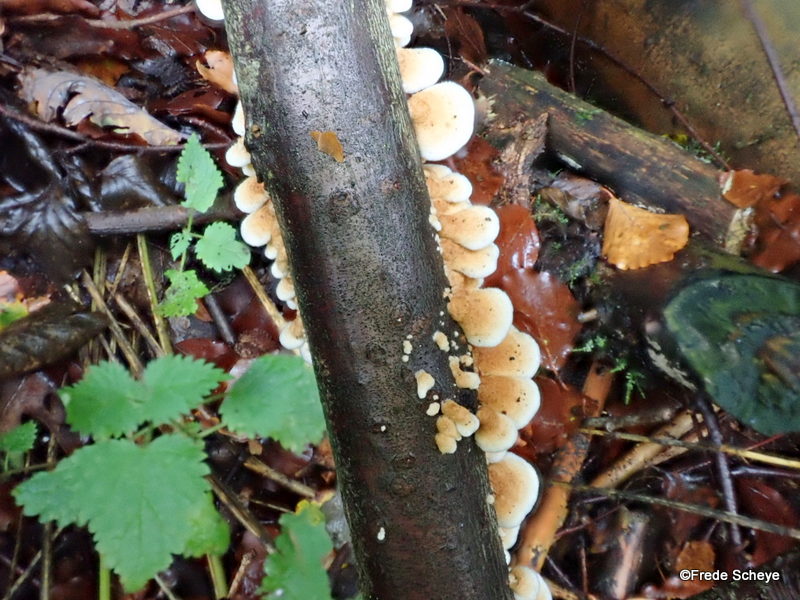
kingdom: Fungi
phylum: Basidiomycota
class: Agaricomycetes
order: Amylocorticiales
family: Amylocorticiaceae
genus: Plicaturopsis
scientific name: Plicaturopsis crispa
